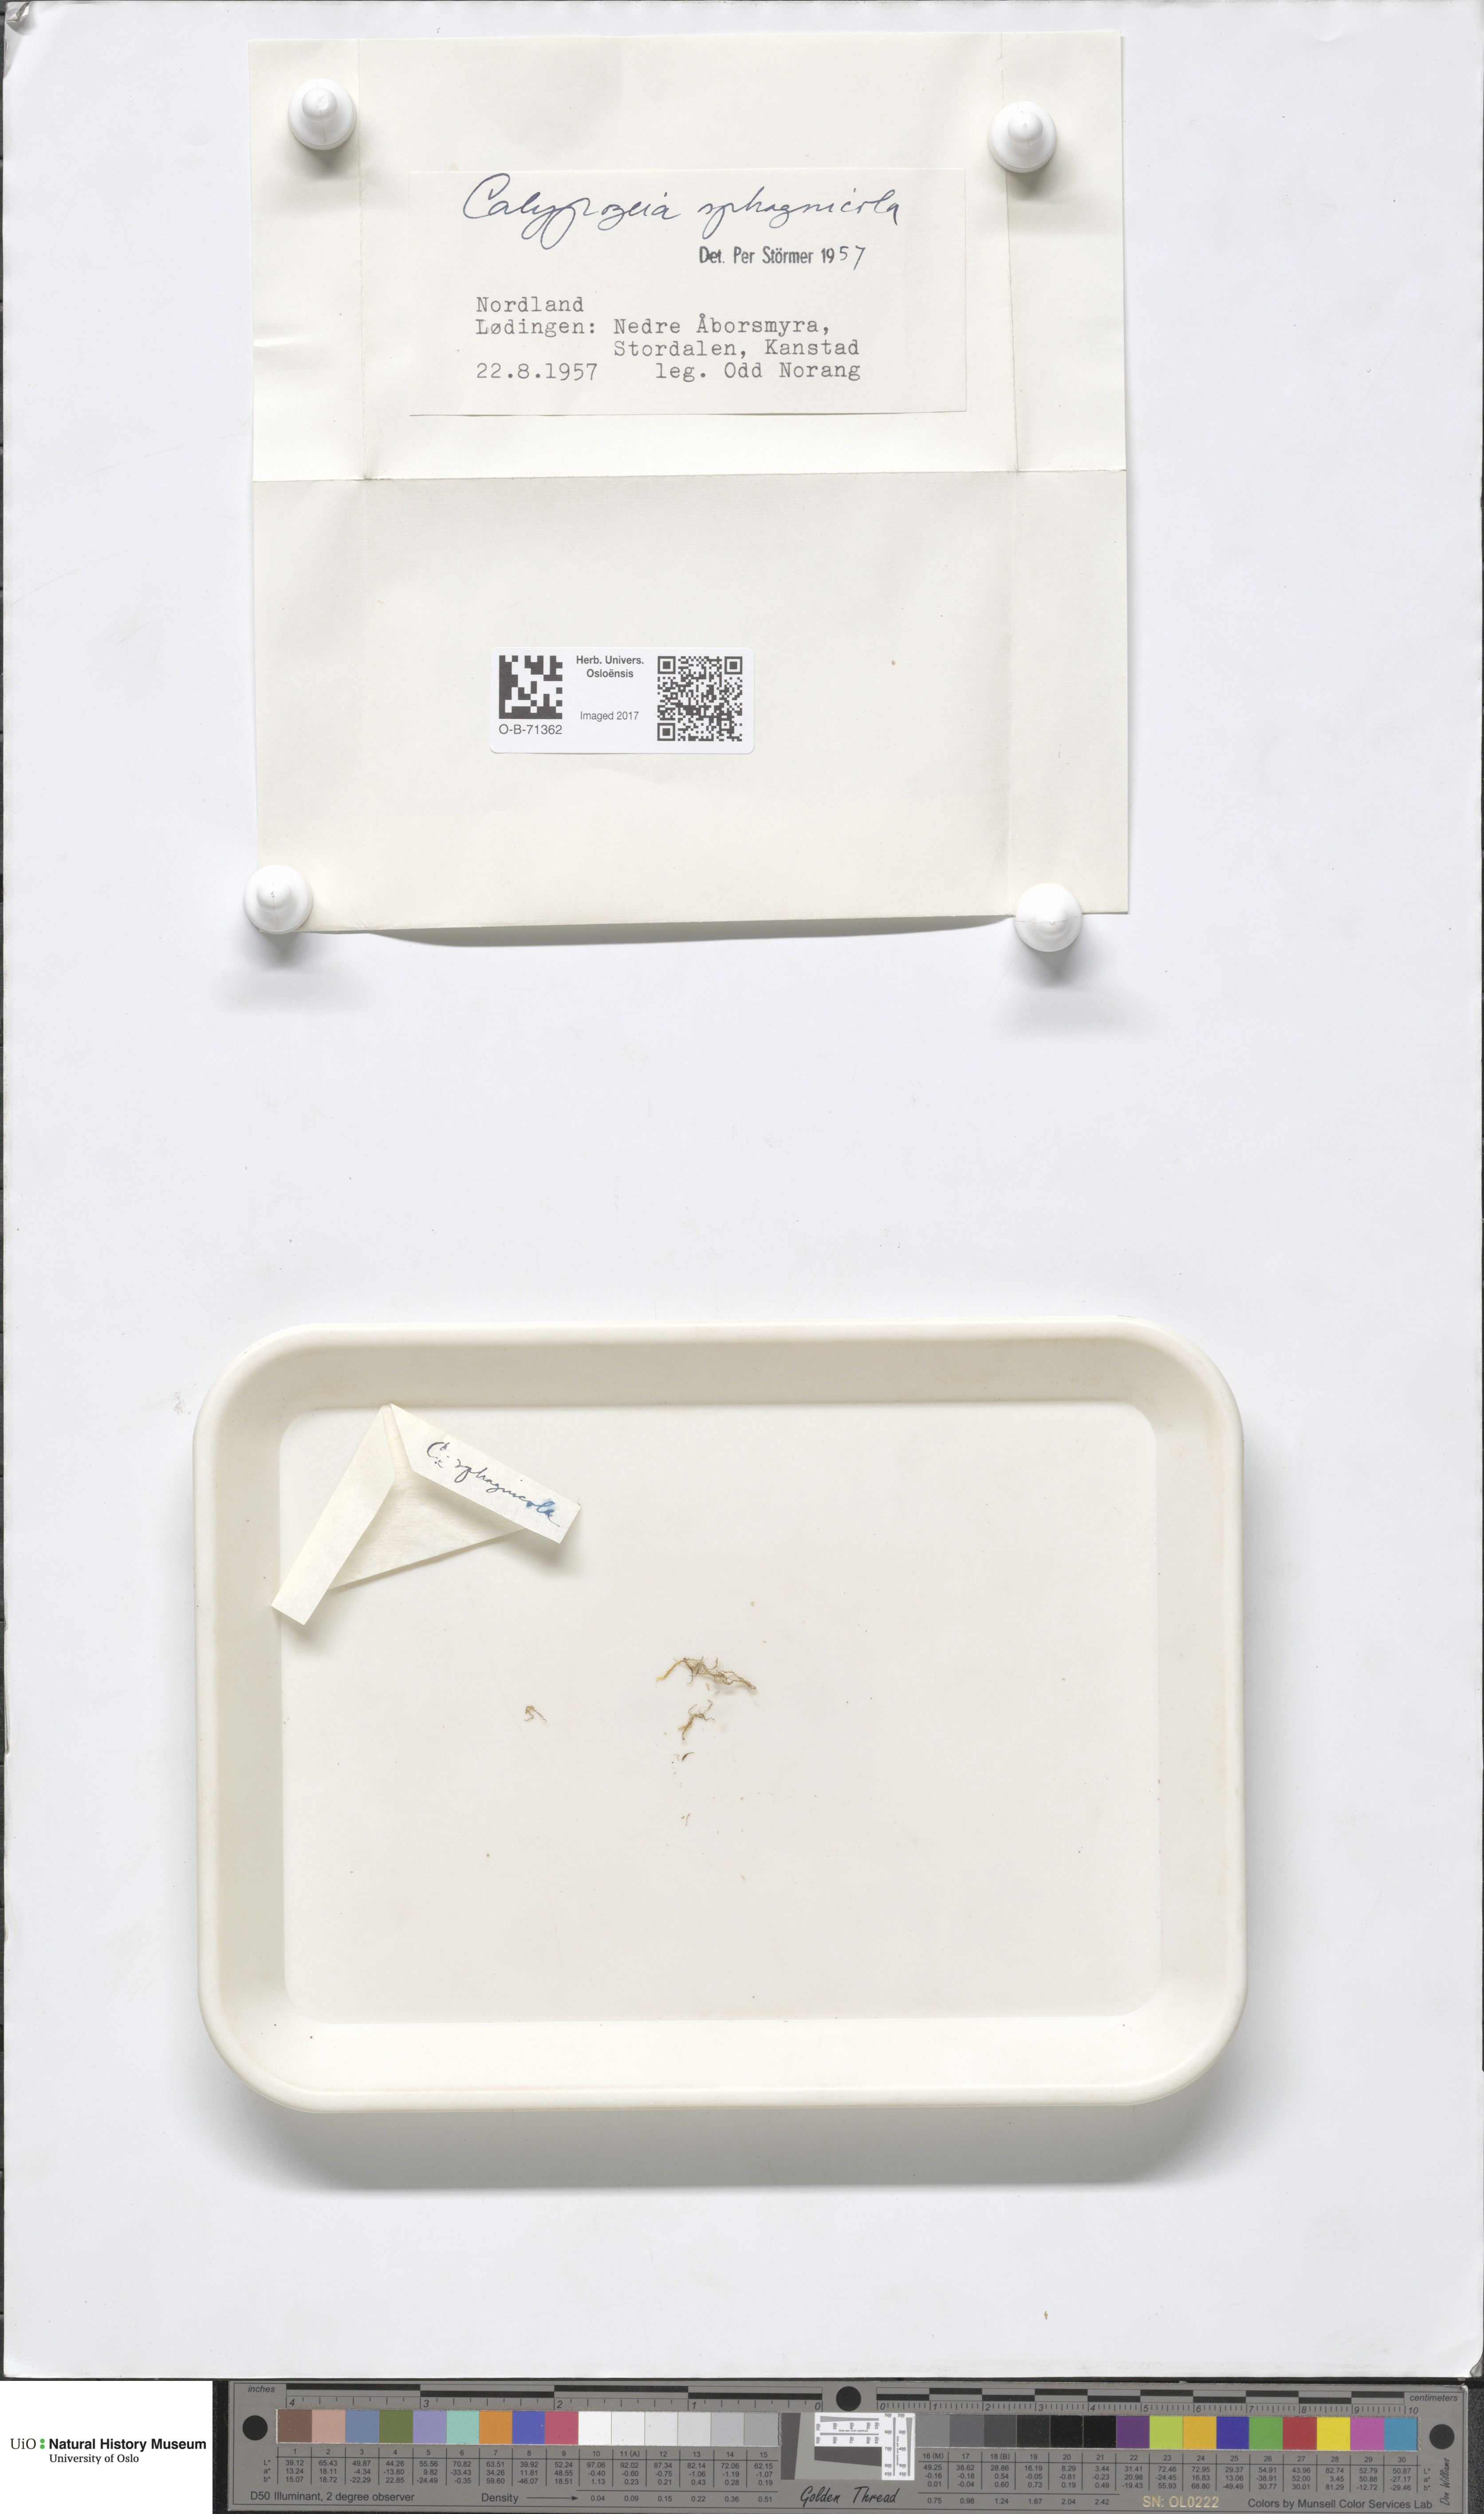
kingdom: Plantae
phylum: Marchantiophyta
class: Jungermanniopsida
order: Jungermanniales
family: Calypogeiaceae
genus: Calypogeia
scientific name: Calypogeia sphagnicola
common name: Bog pouchwort
